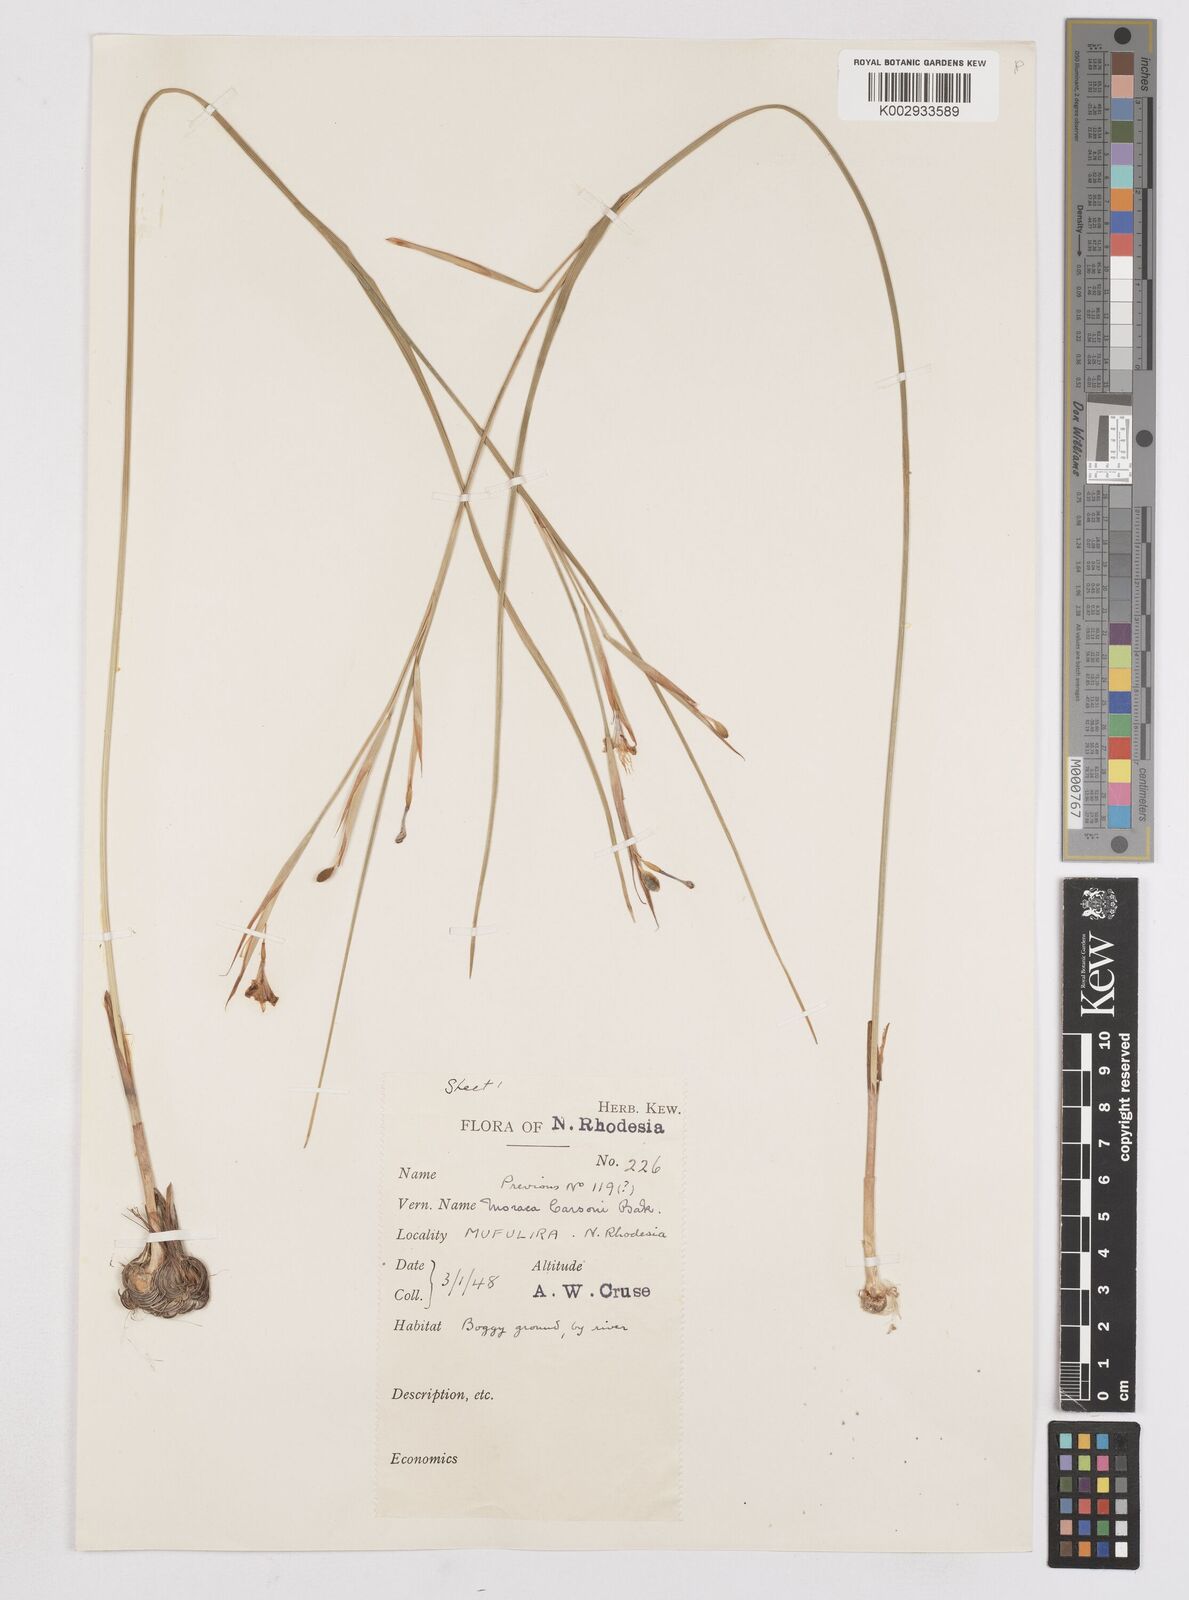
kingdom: Plantae
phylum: Tracheophyta
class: Liliopsida
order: Asparagales
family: Iridaceae
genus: Moraea
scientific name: Moraea carsonii
